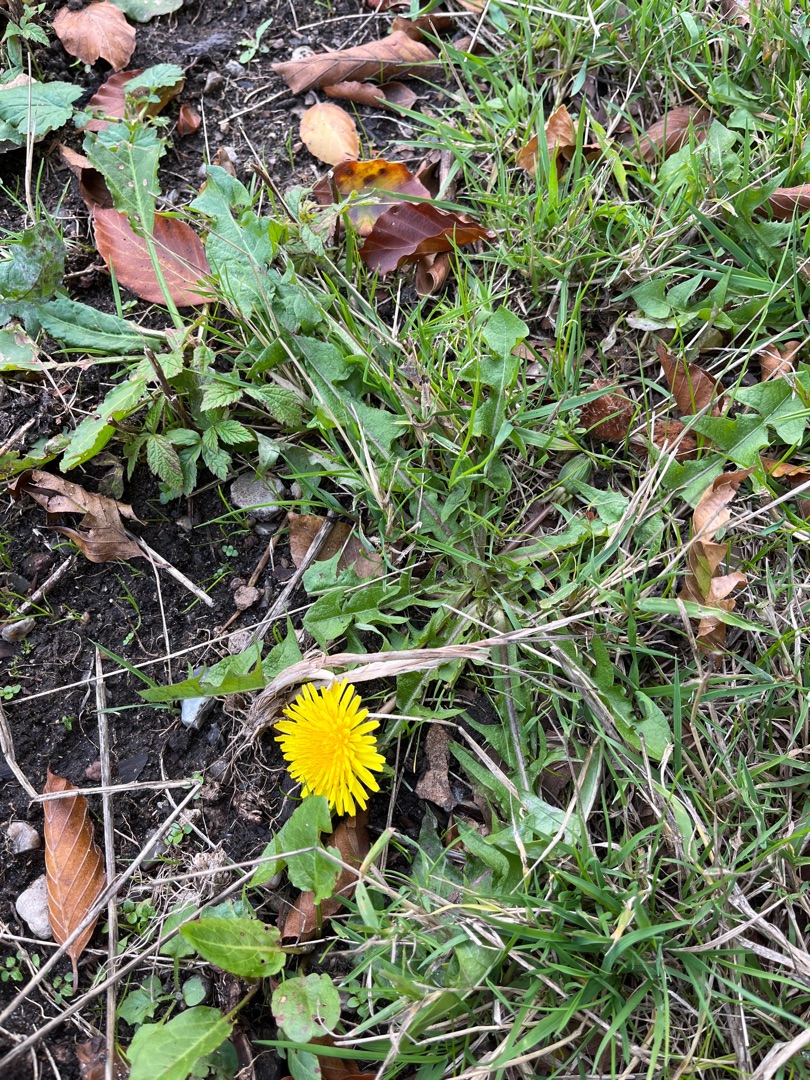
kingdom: Plantae
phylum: Tracheophyta
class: Magnoliopsida
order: Asterales
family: Asteraceae
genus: Taraxacum
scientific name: Taraxacum
